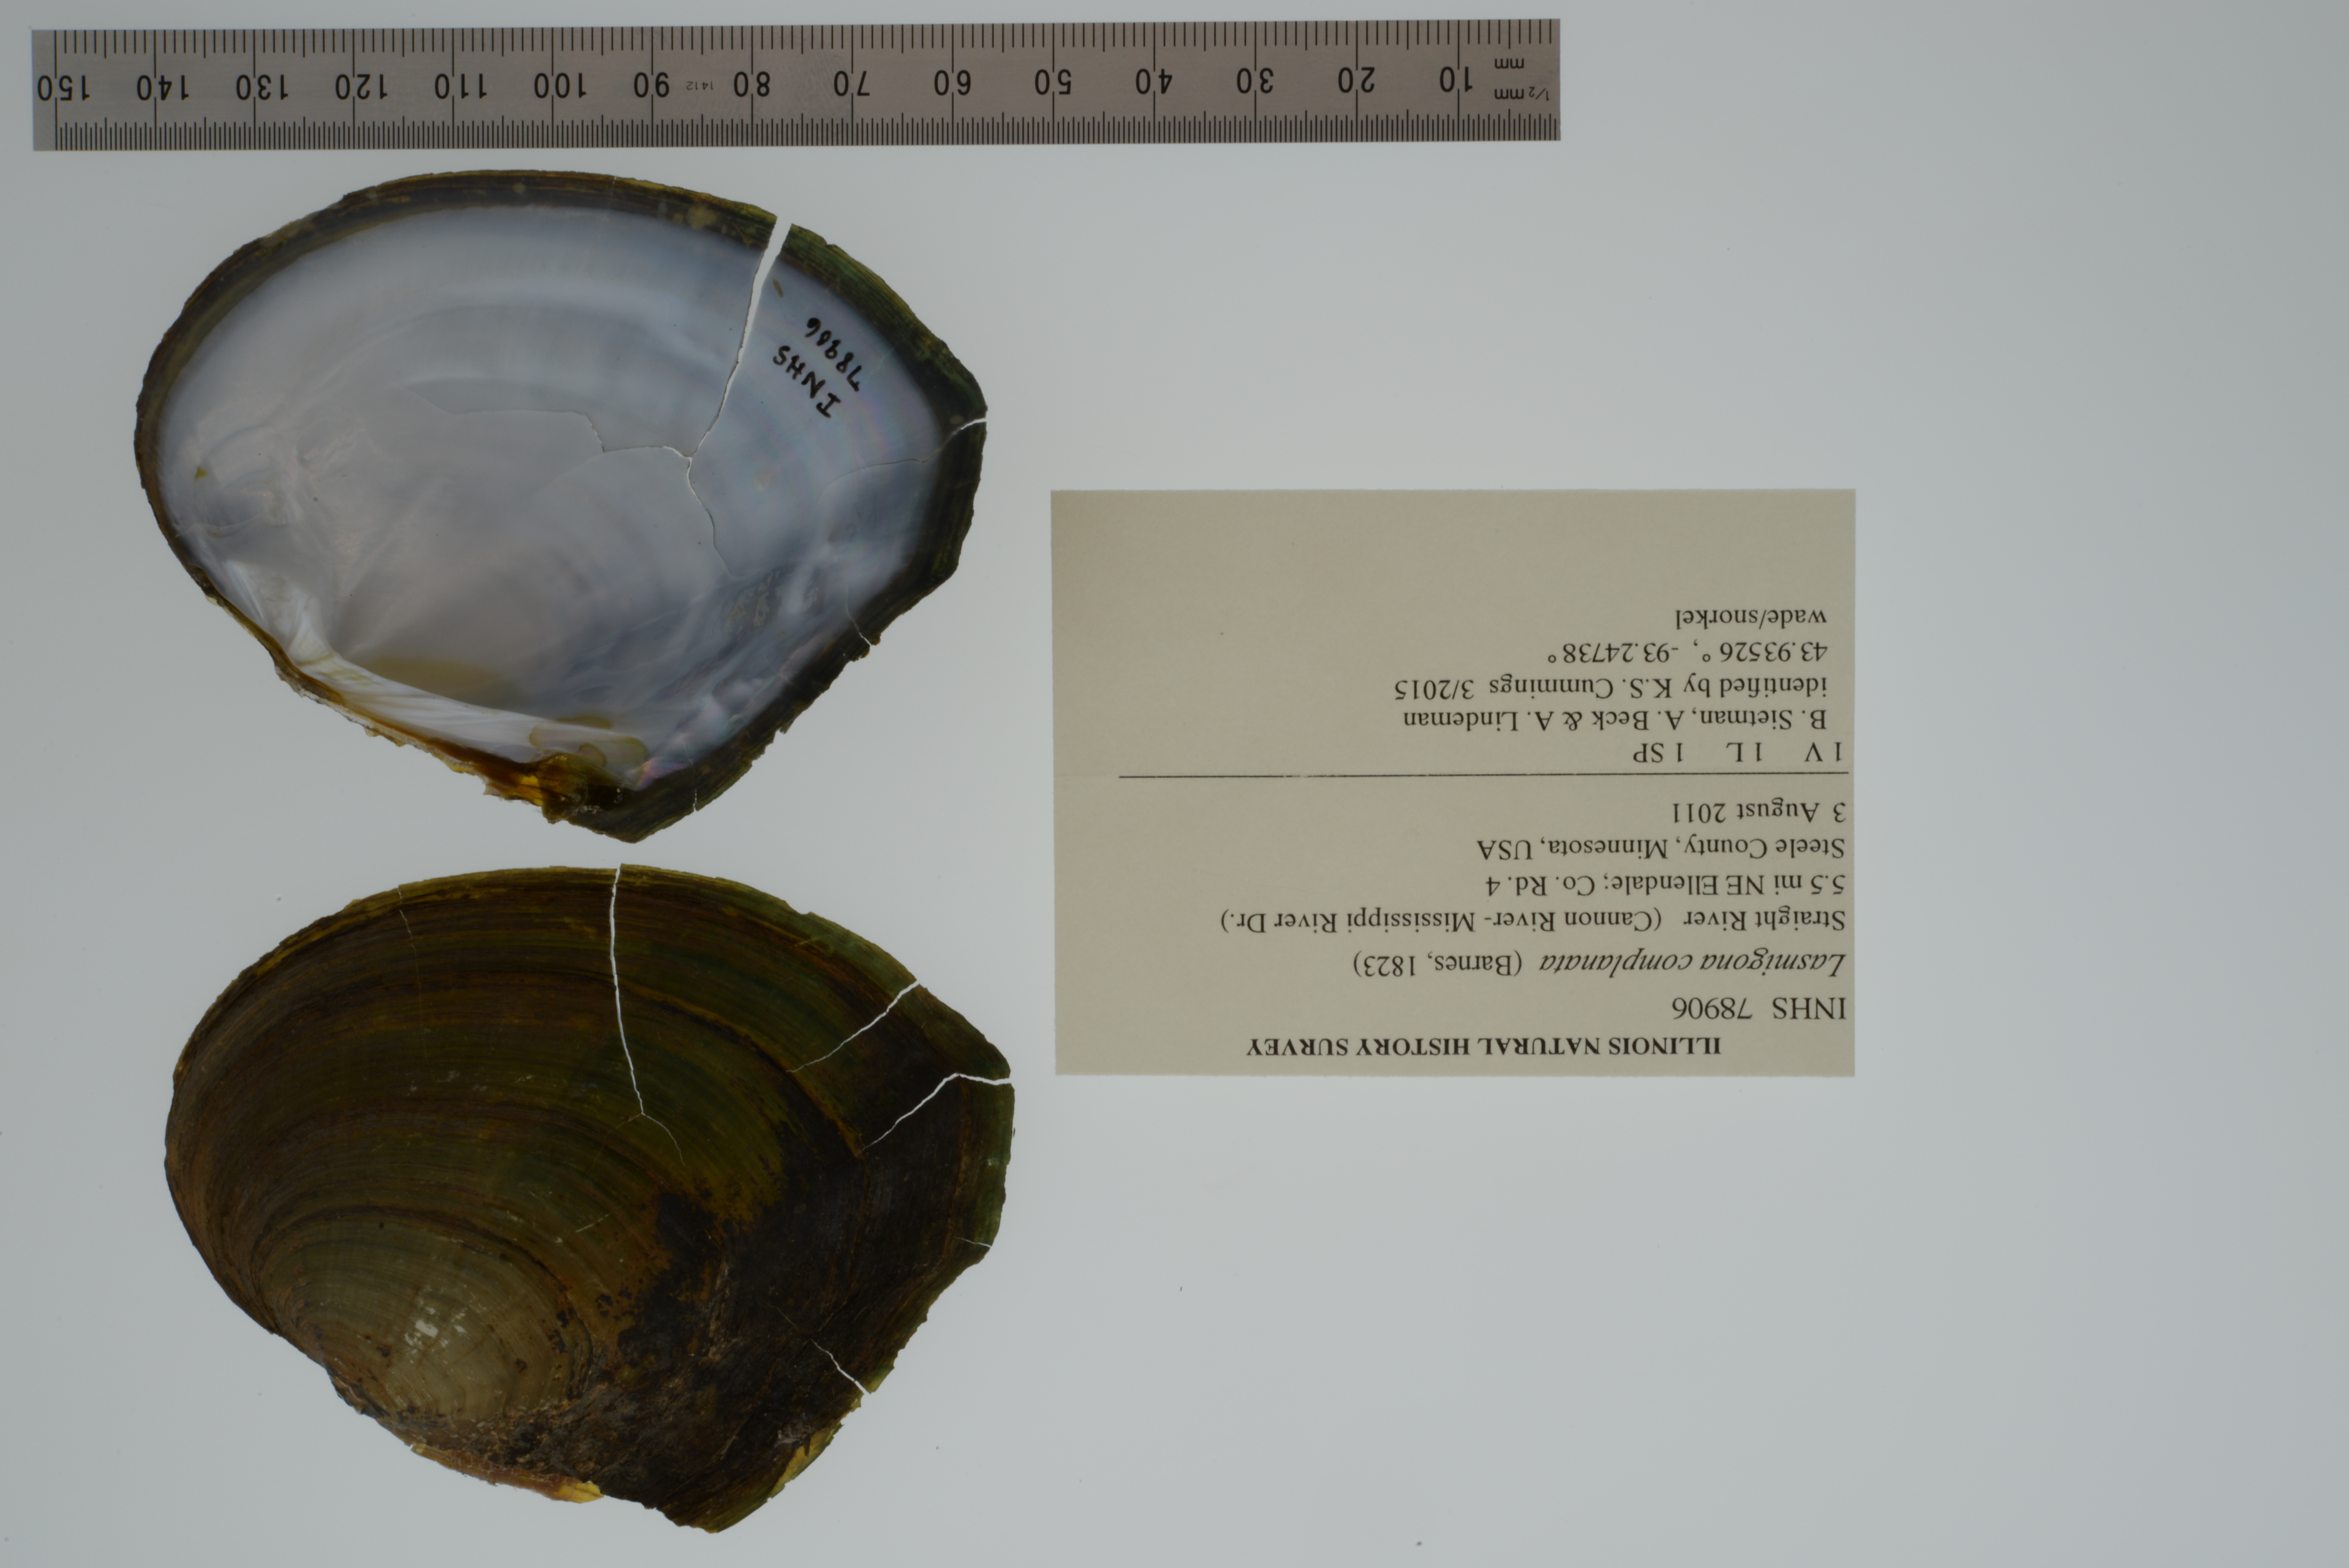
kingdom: Animalia
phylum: Mollusca
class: Bivalvia
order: Unionida
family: Unionidae
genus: Lasmigona
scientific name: Lasmigona complanata
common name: White heelsplitter
